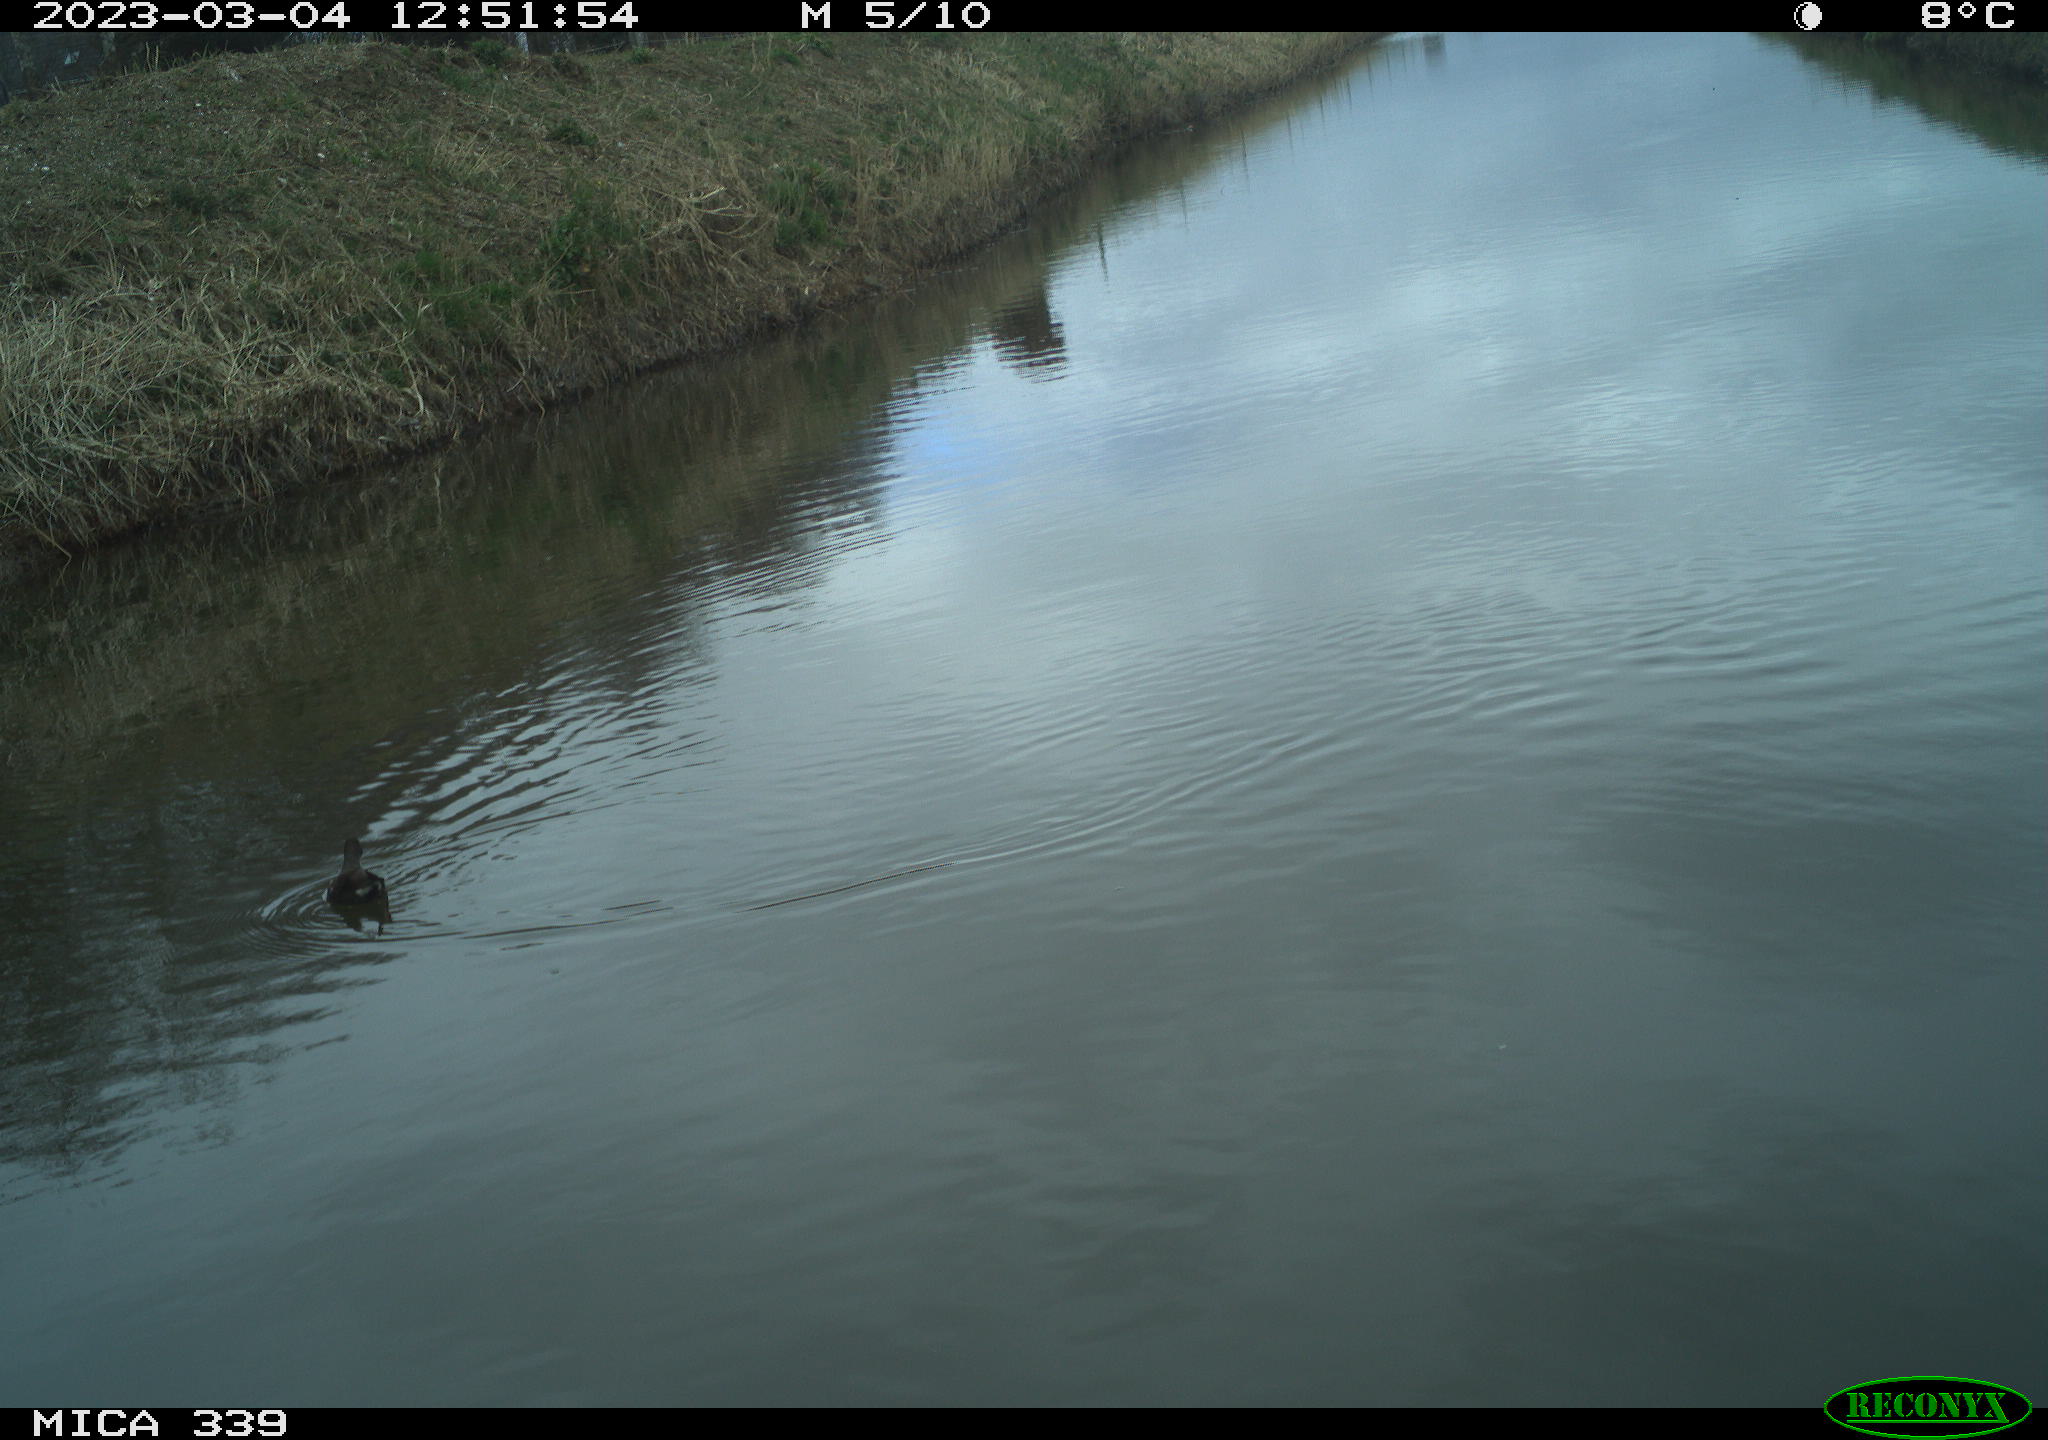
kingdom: Animalia
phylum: Chordata
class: Aves
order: Gruiformes
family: Rallidae
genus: Gallinula
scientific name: Gallinula chloropus
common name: Common moorhen
